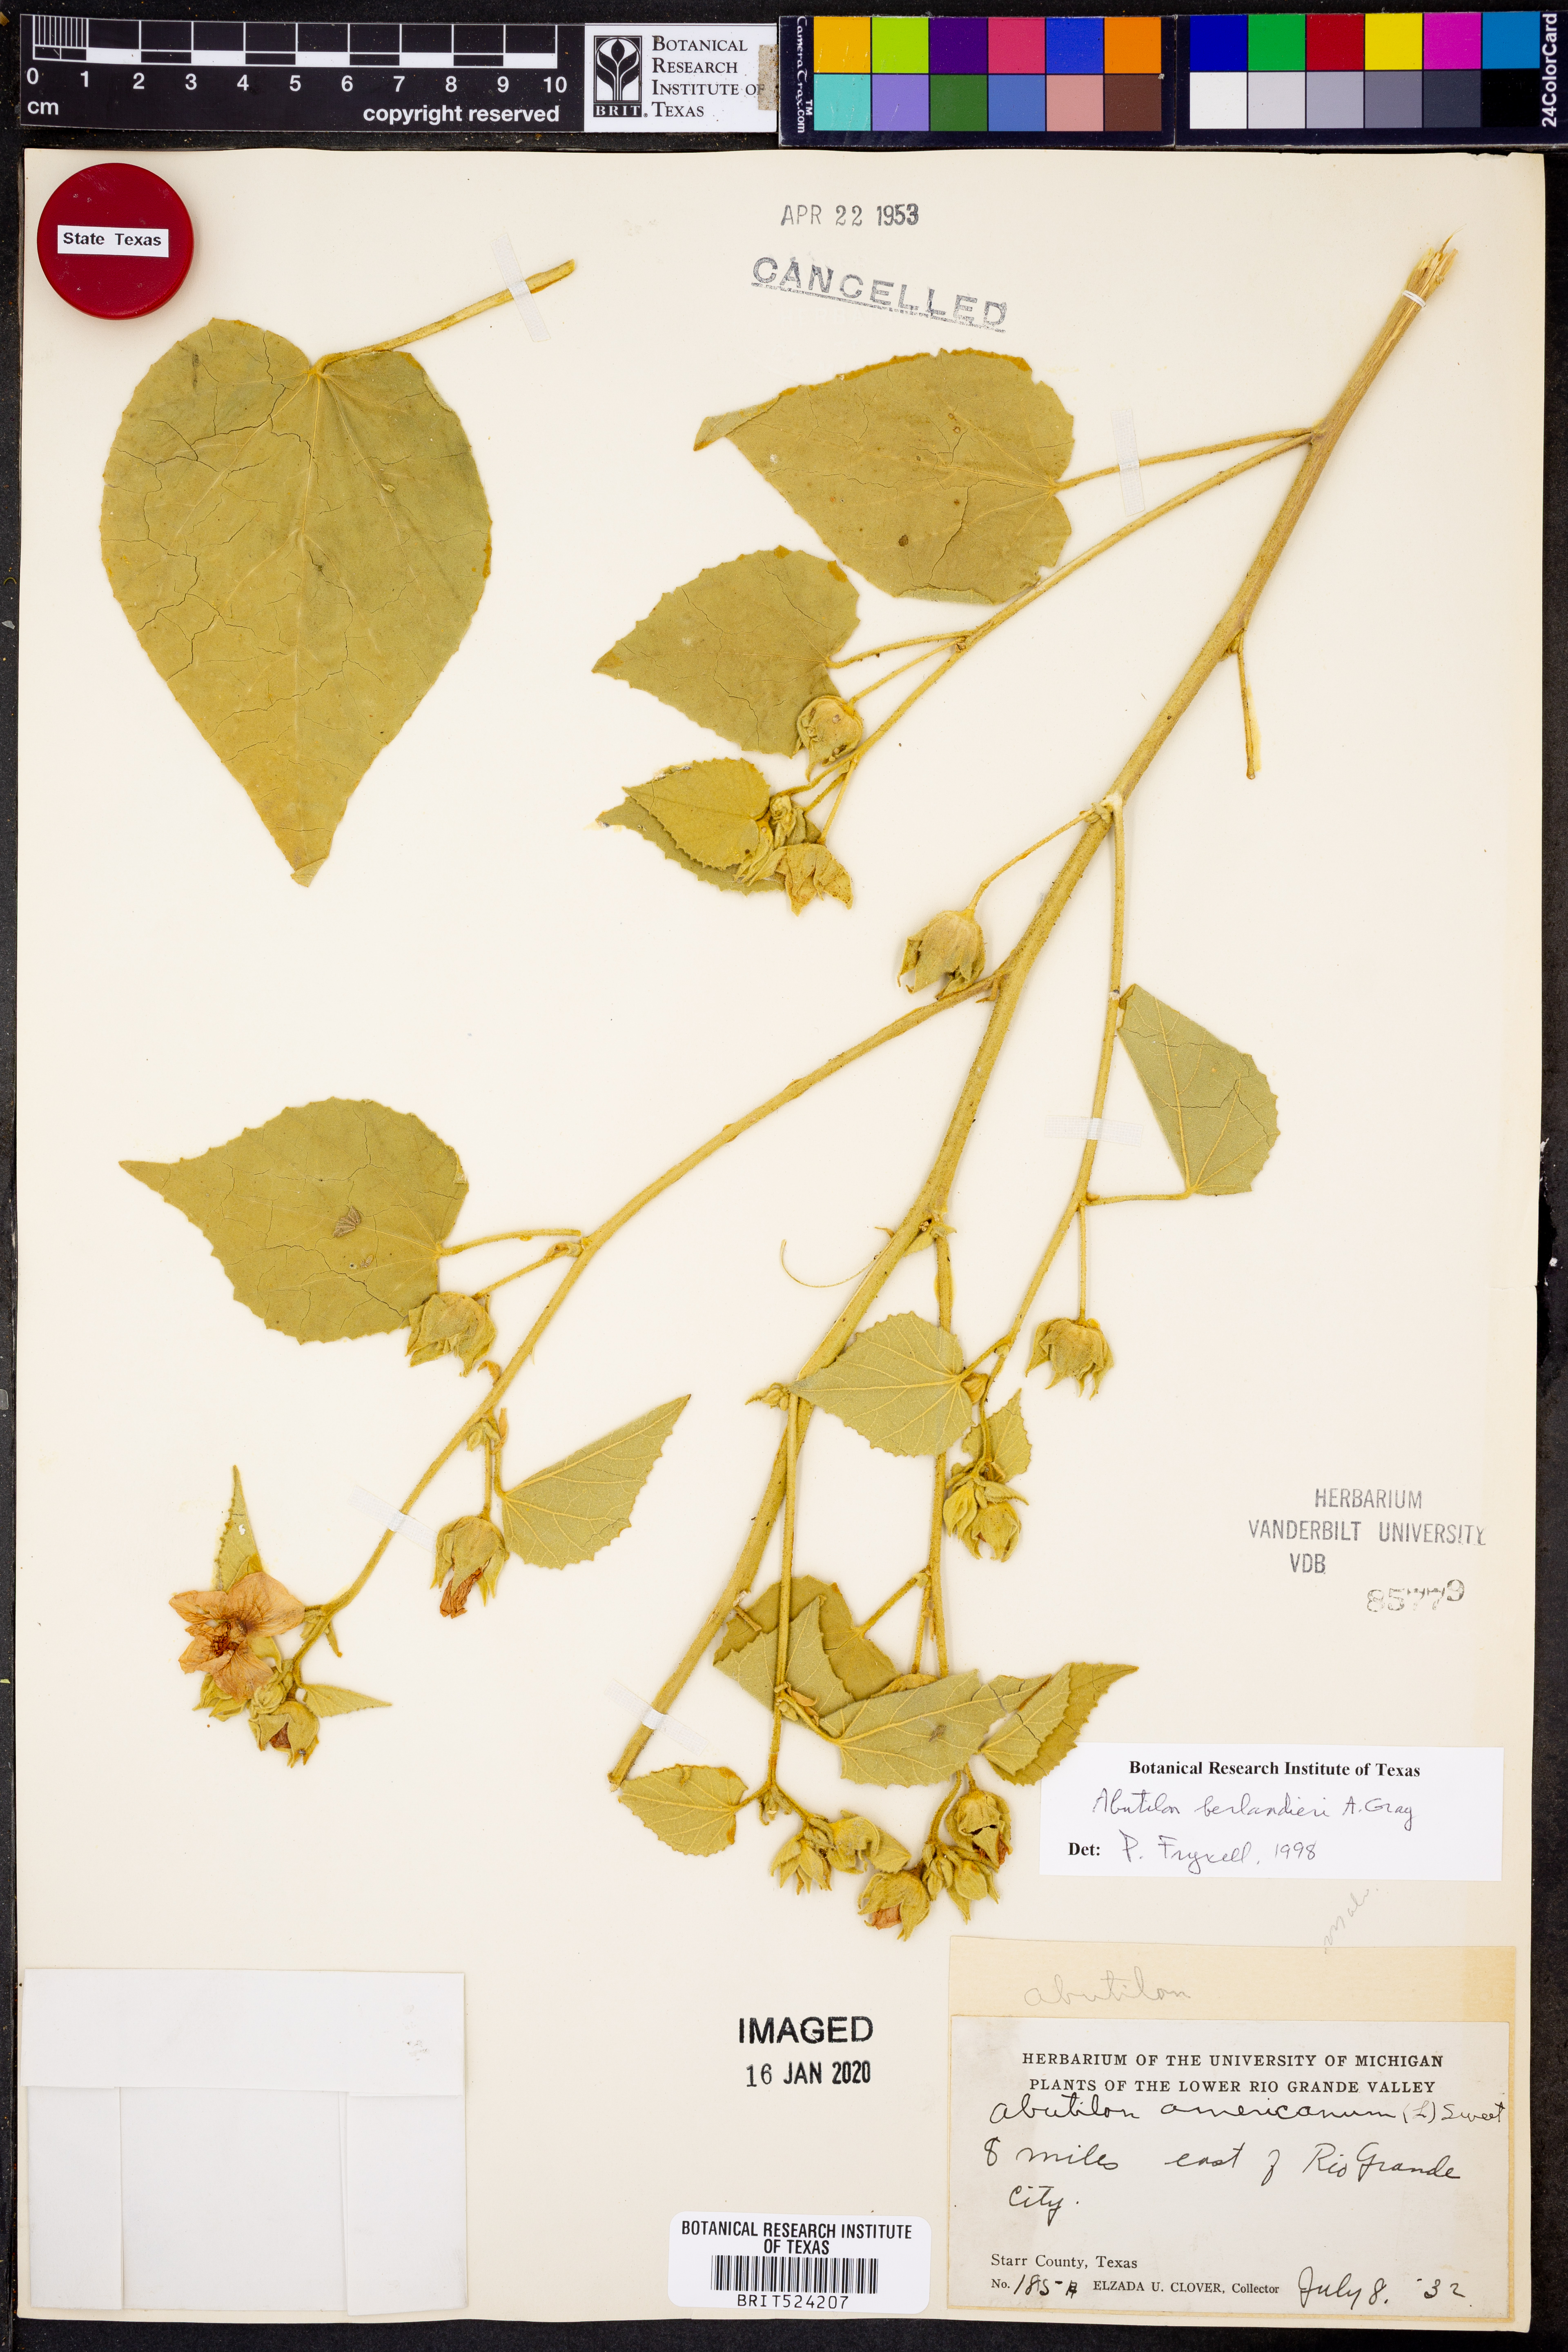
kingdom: Plantae
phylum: Tracheophyta
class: Magnoliopsida
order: Malvales
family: Malvaceae
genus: Abutilon
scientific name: Abutilon berlandieri
